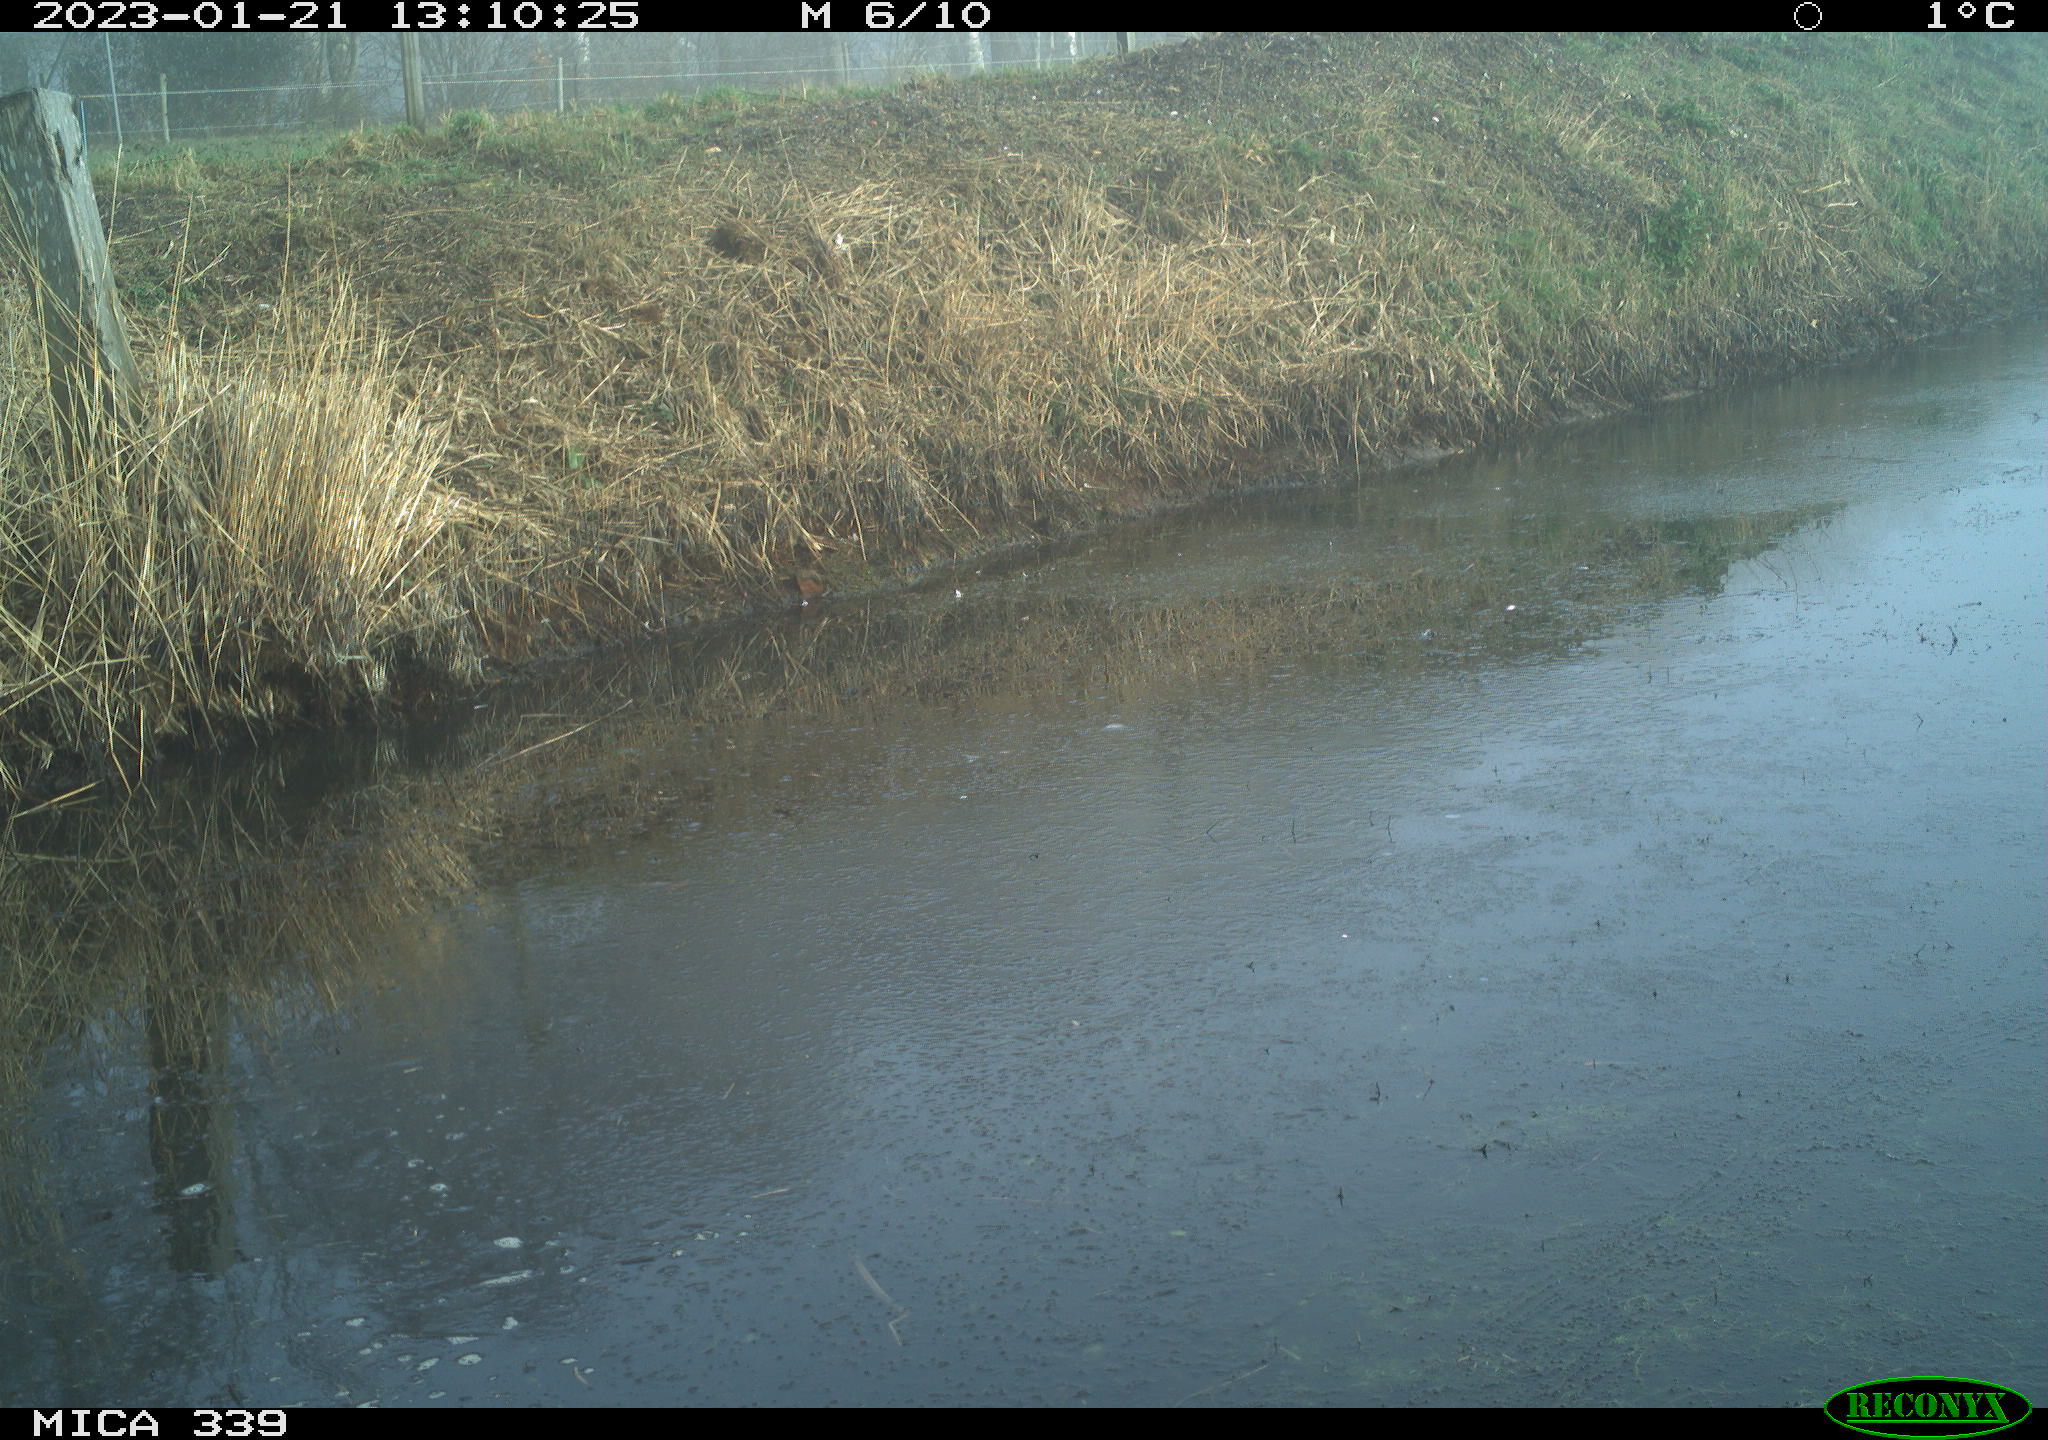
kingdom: Animalia
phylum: Chordata
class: Aves
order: Suliformes
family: Phalacrocoracidae
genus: Phalacrocorax
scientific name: Phalacrocorax carbo
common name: Great cormorant
